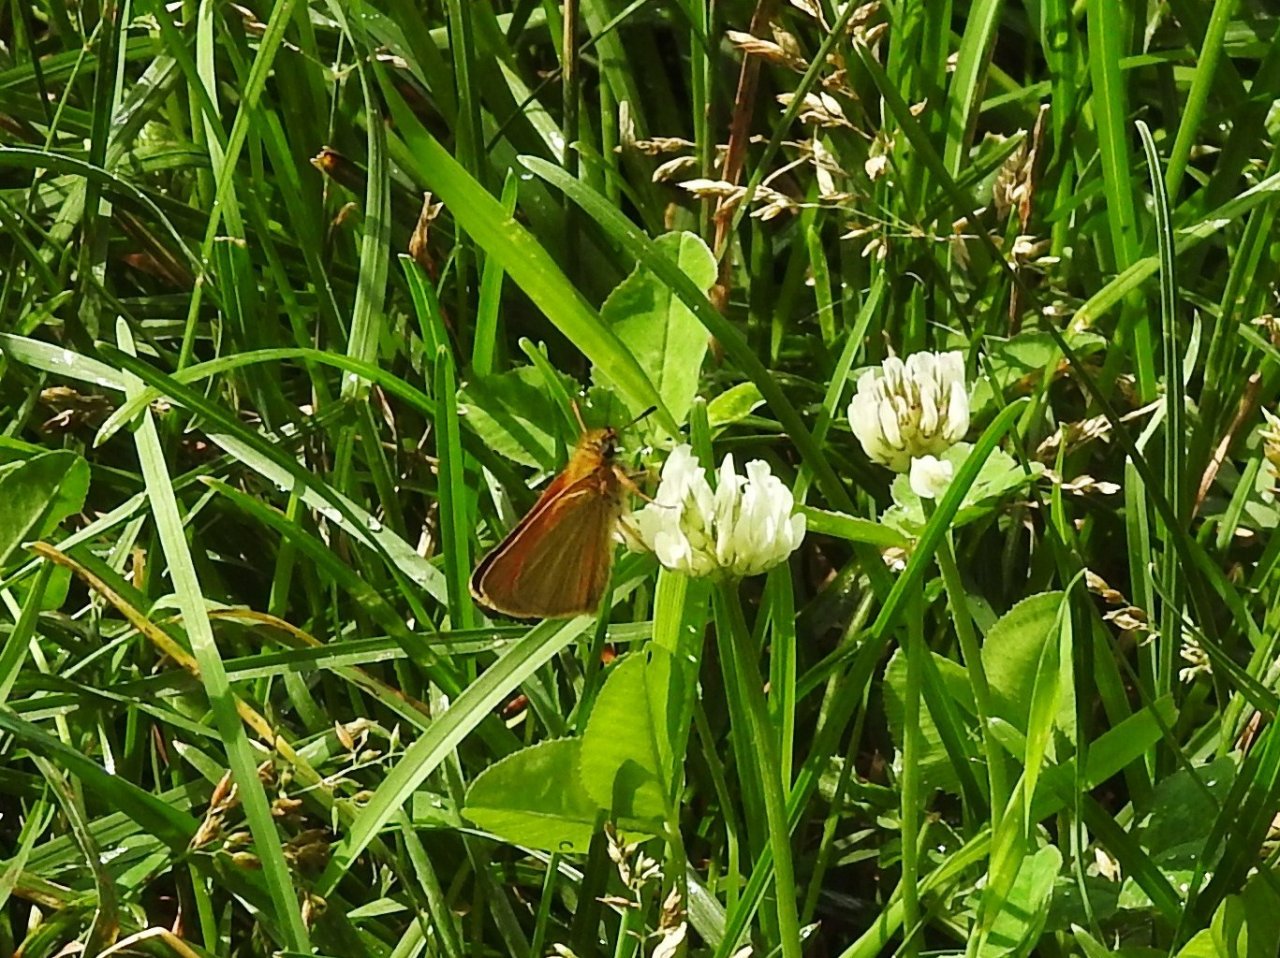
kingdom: Animalia
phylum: Arthropoda
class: Insecta
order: Lepidoptera
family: Hesperiidae
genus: Ancyloxypha
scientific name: Ancyloxypha numitor
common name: Least Skipper
